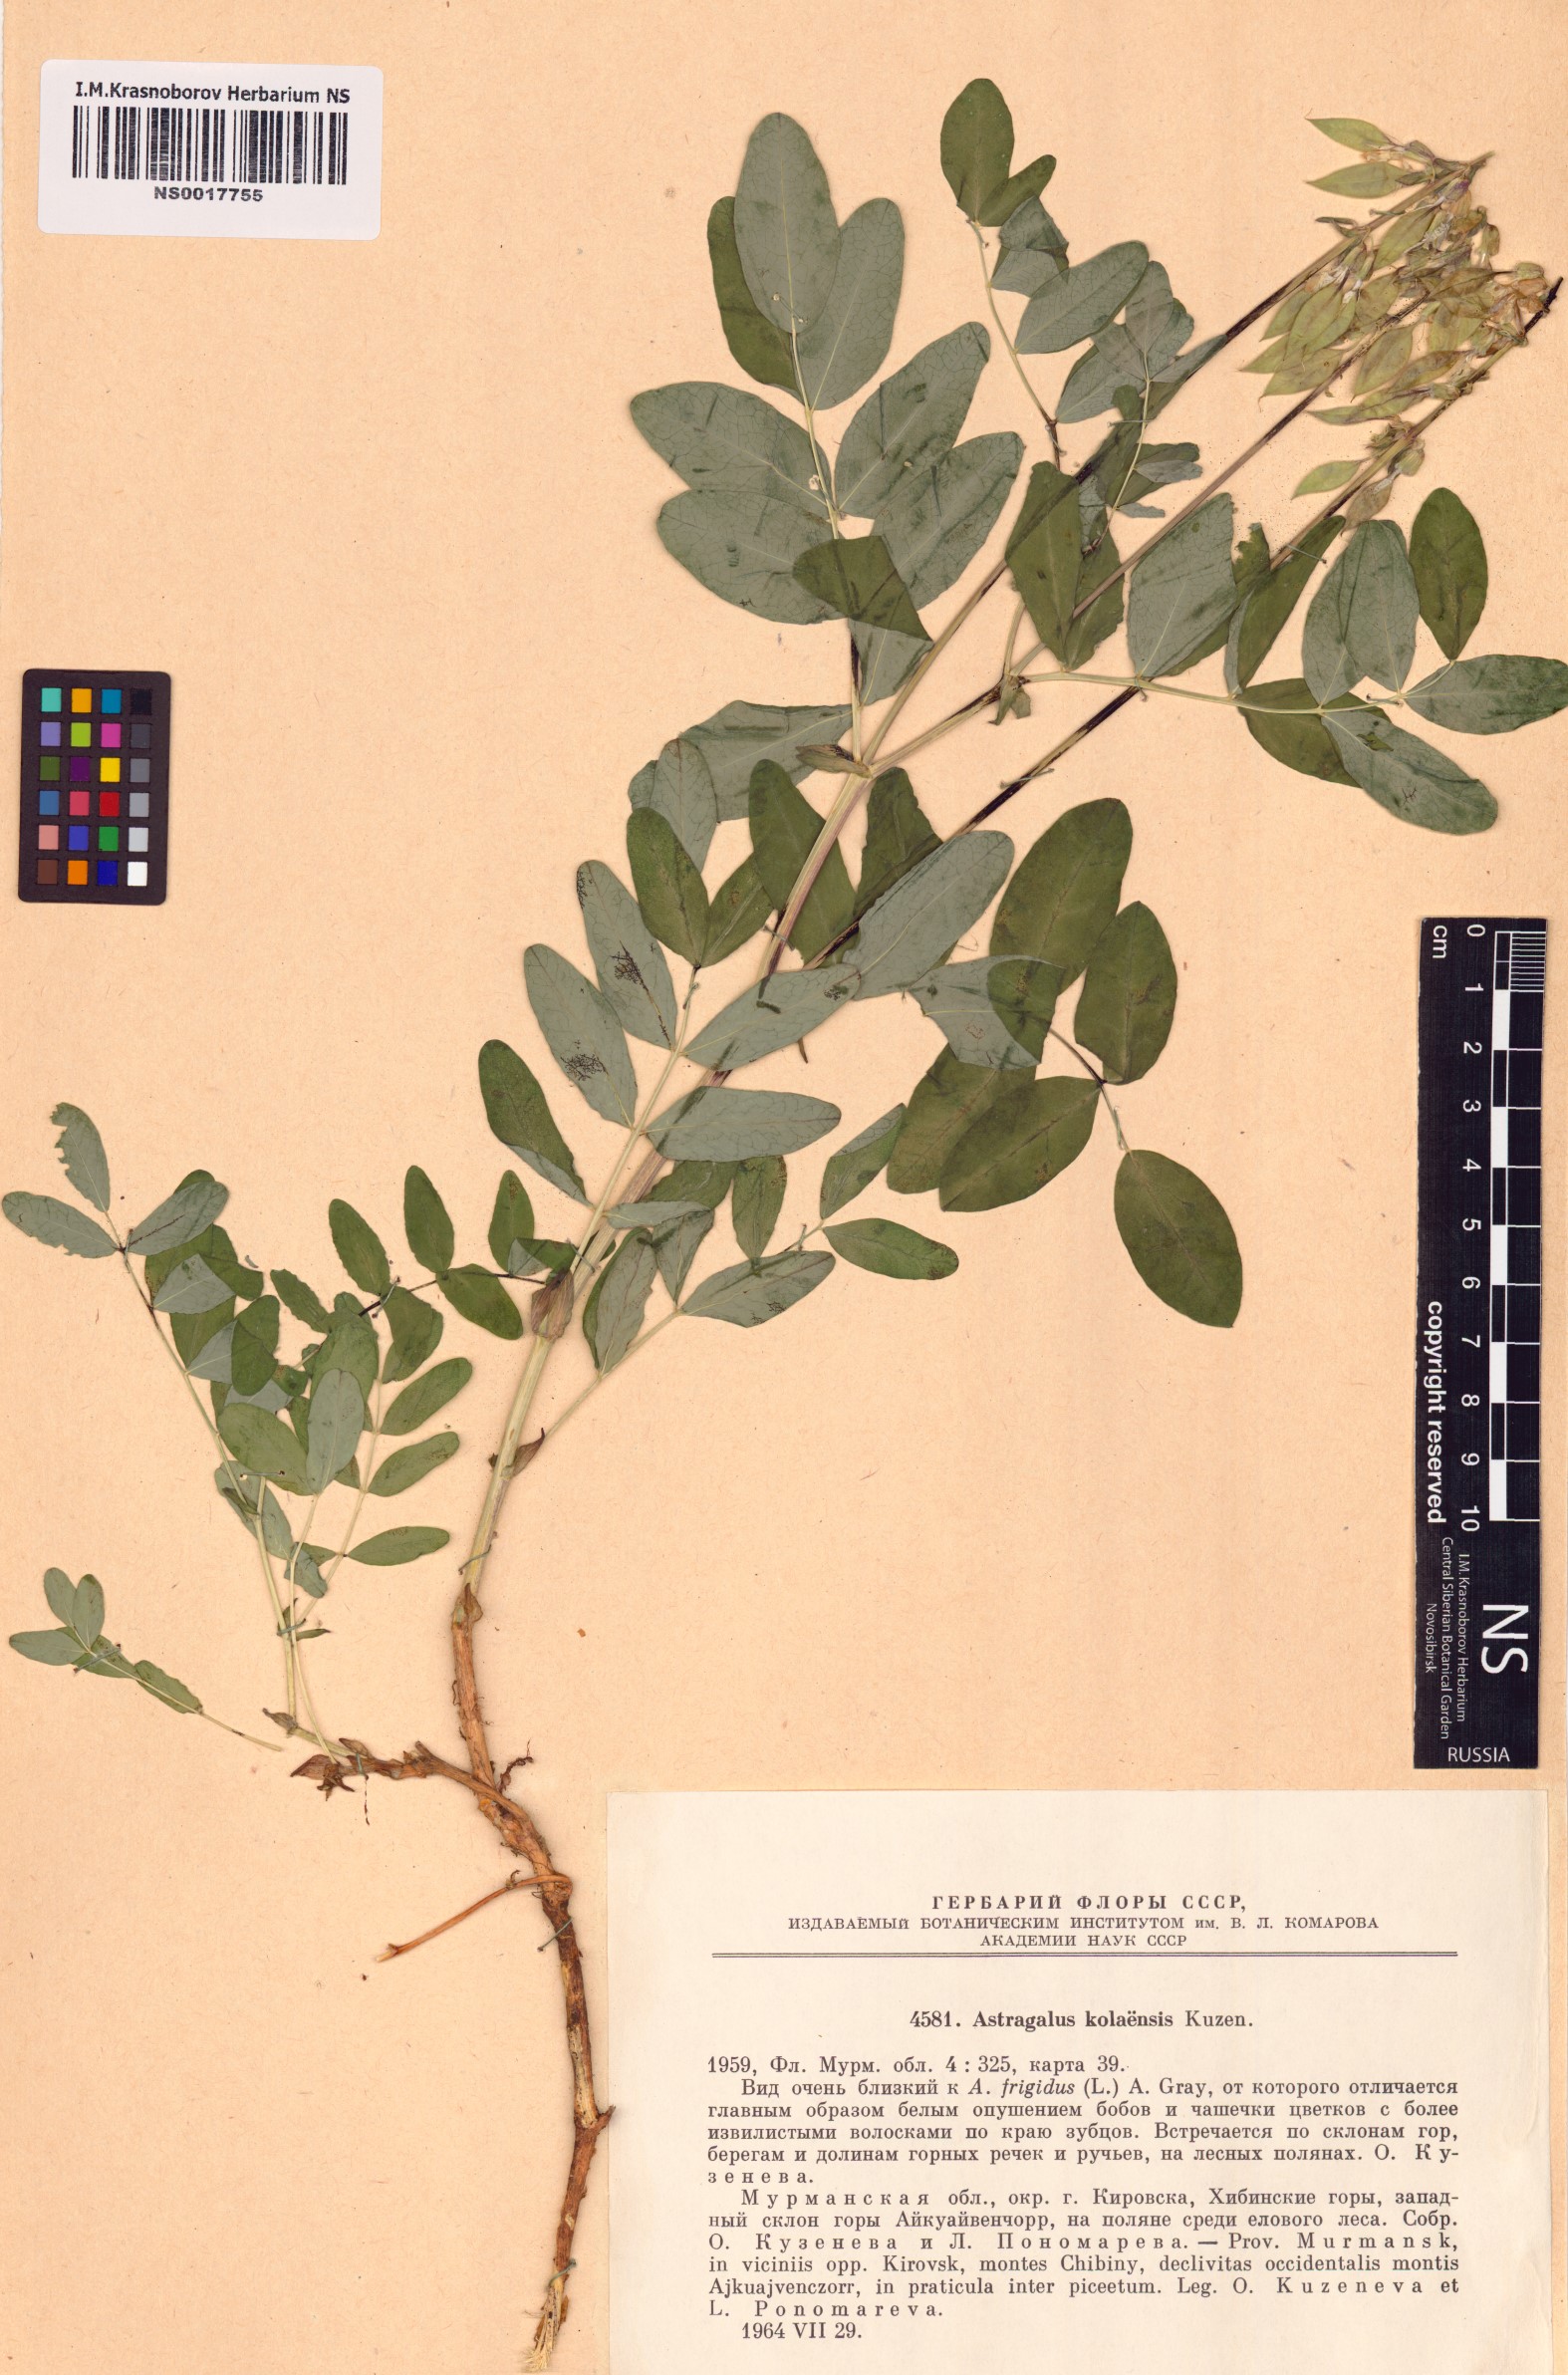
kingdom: Plantae
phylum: Tracheophyta
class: Magnoliopsida
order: Fabales
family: Fabaceae
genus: Astragalus
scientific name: Astragalus frigidus
